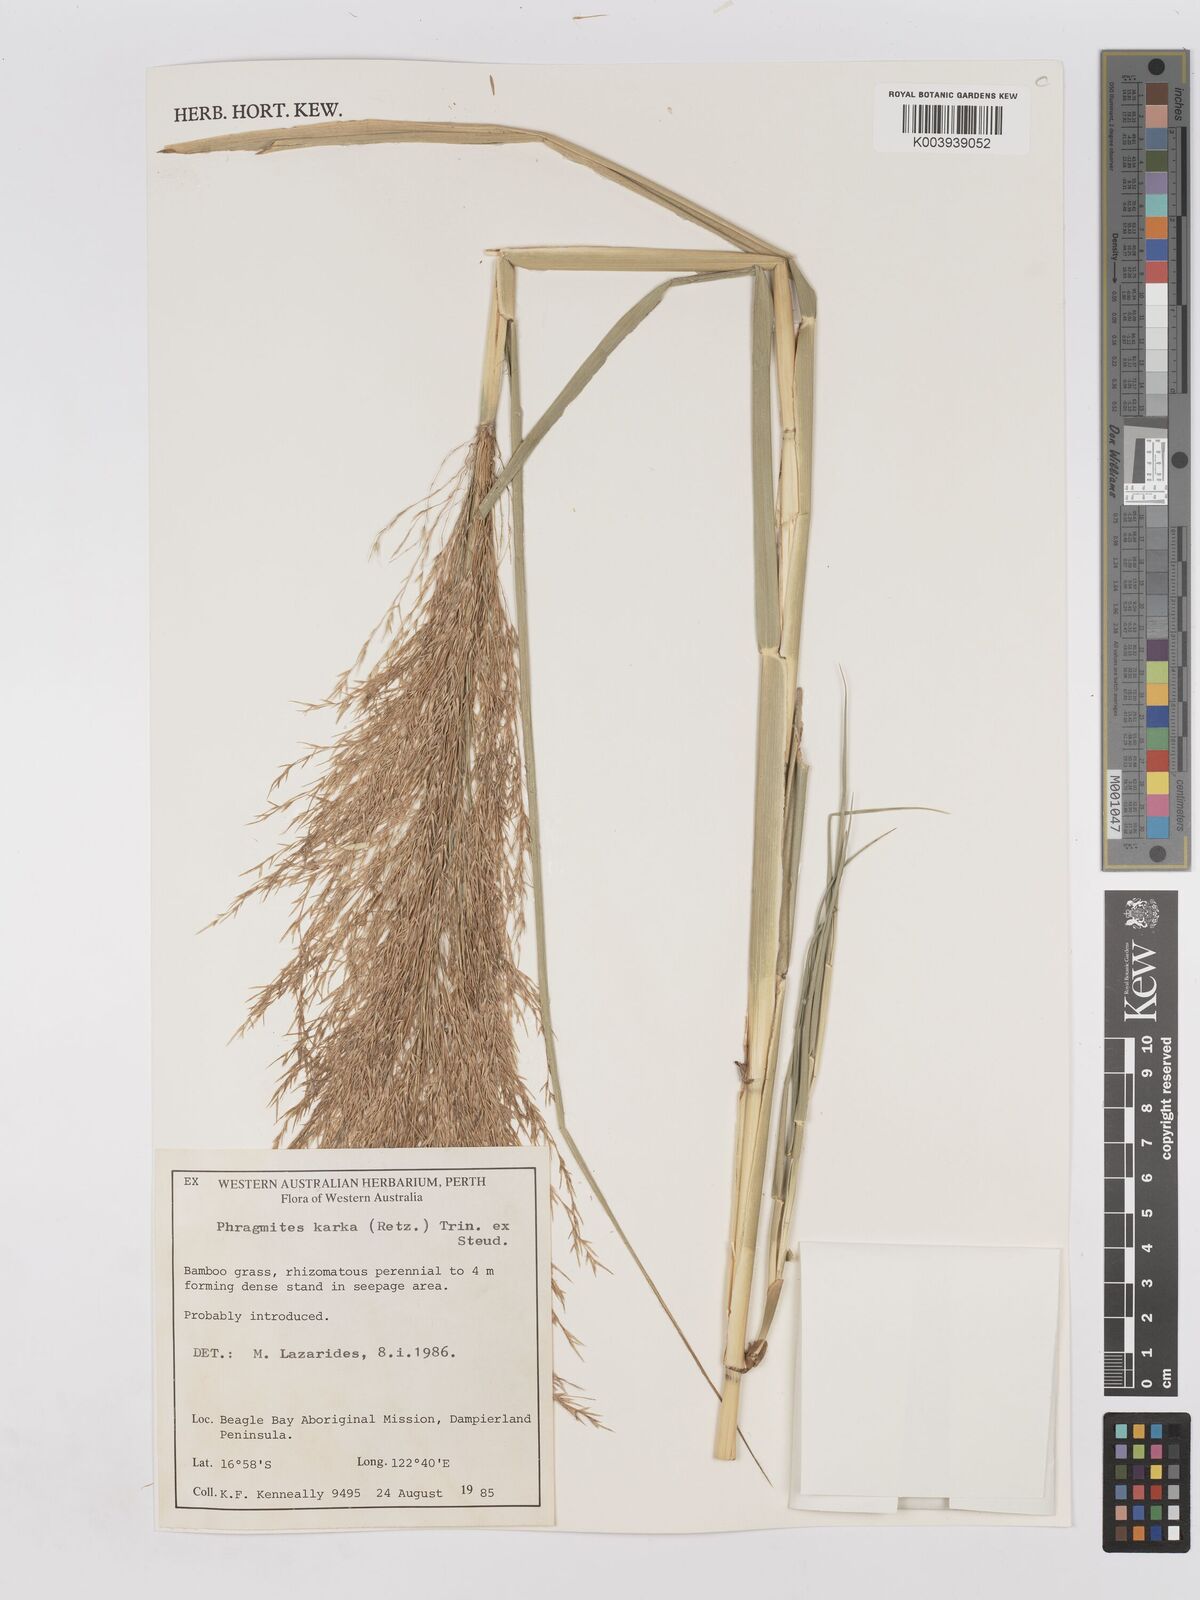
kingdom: Plantae
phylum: Tracheophyta
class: Liliopsida
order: Poales
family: Poaceae
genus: Phragmites
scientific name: Phragmites karka
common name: Tropical reed
